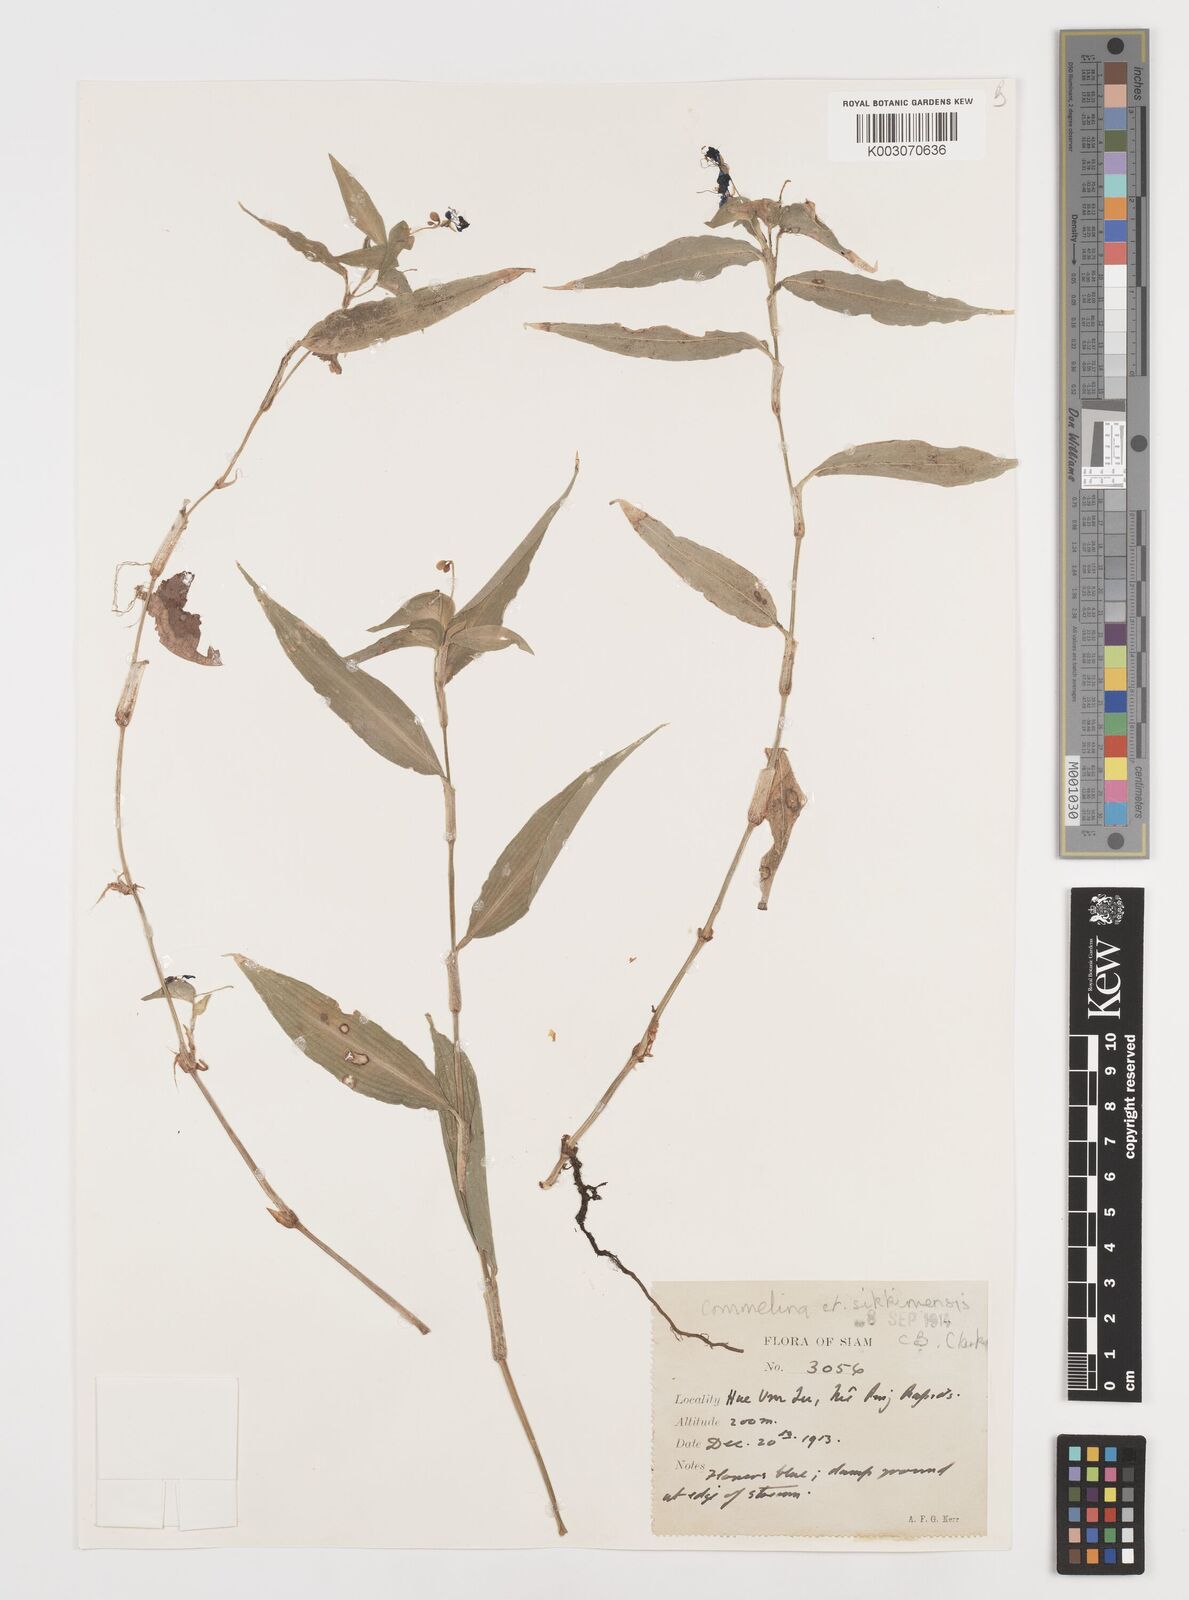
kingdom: Plantae
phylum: Tracheophyta
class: Liliopsida
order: Commelinales
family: Commelinaceae
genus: Commelina
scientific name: Commelina sikkimensis
